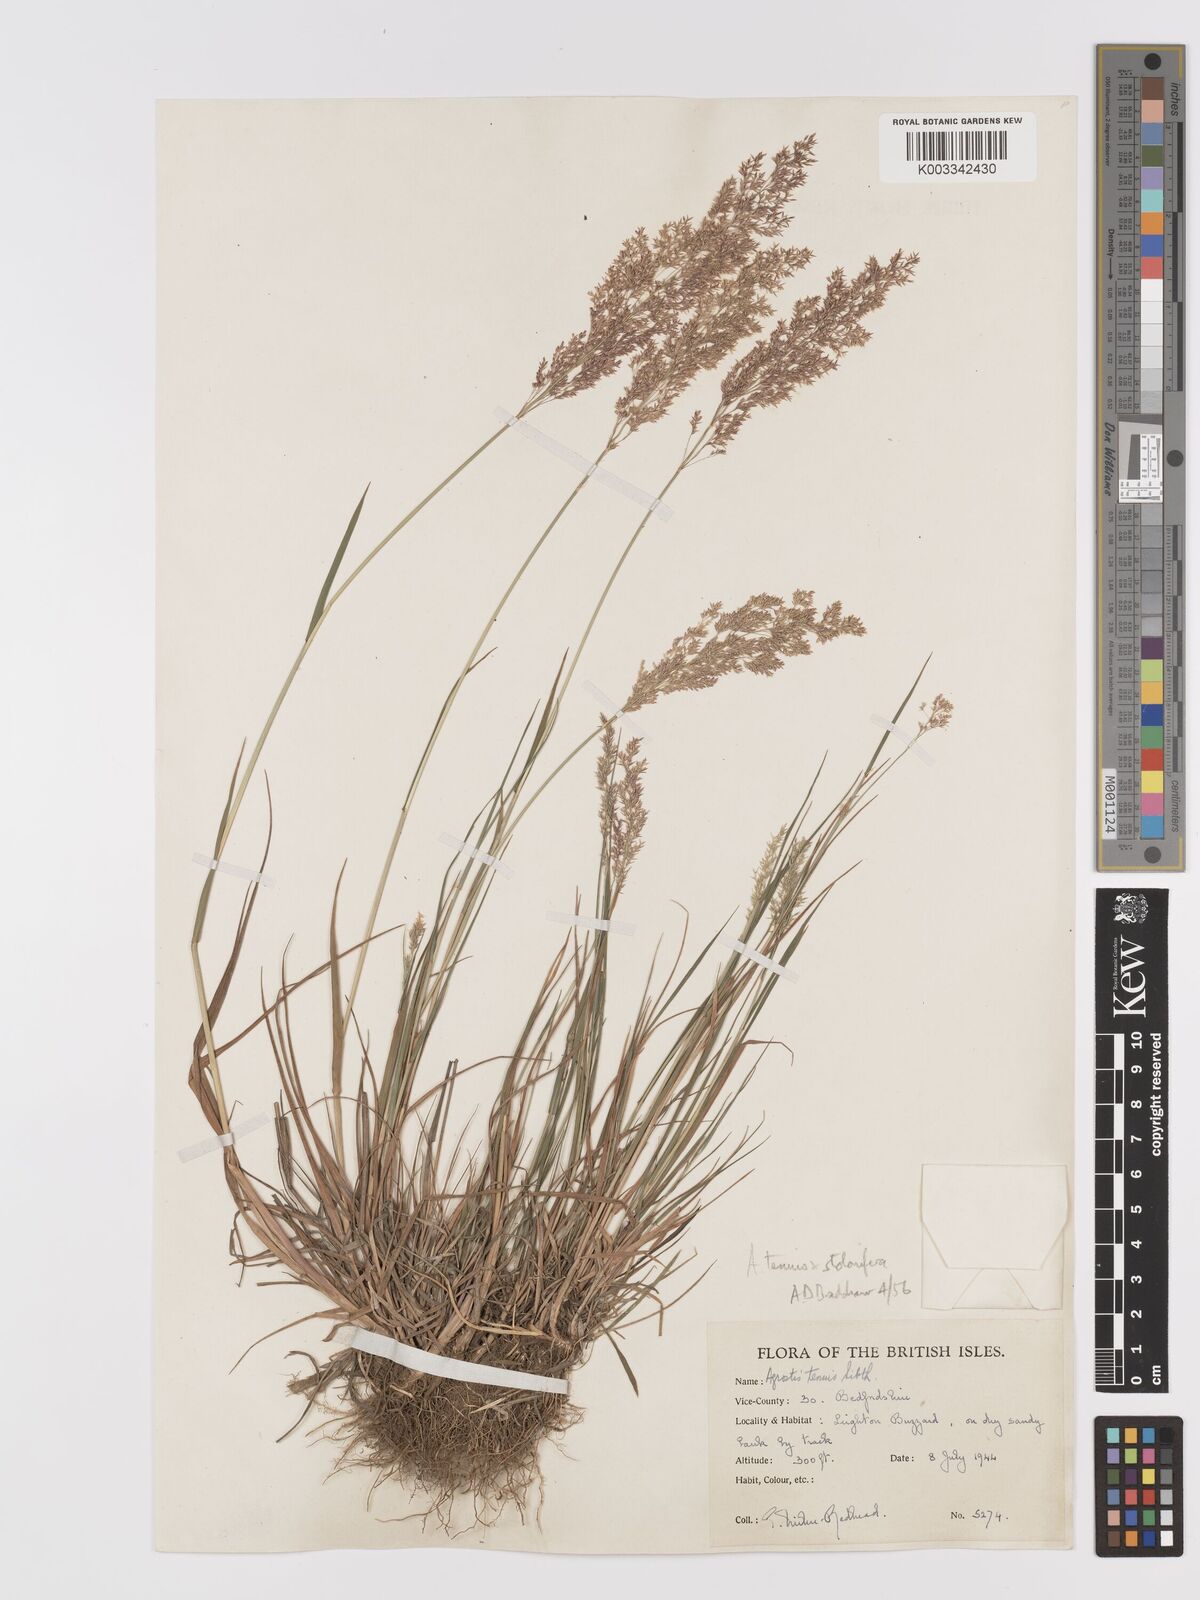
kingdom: Plantae
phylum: Tracheophyta
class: Liliopsida
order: Poales
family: Poaceae
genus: Agrostis
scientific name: Agrostis capillaris
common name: Colonial bentgrass
